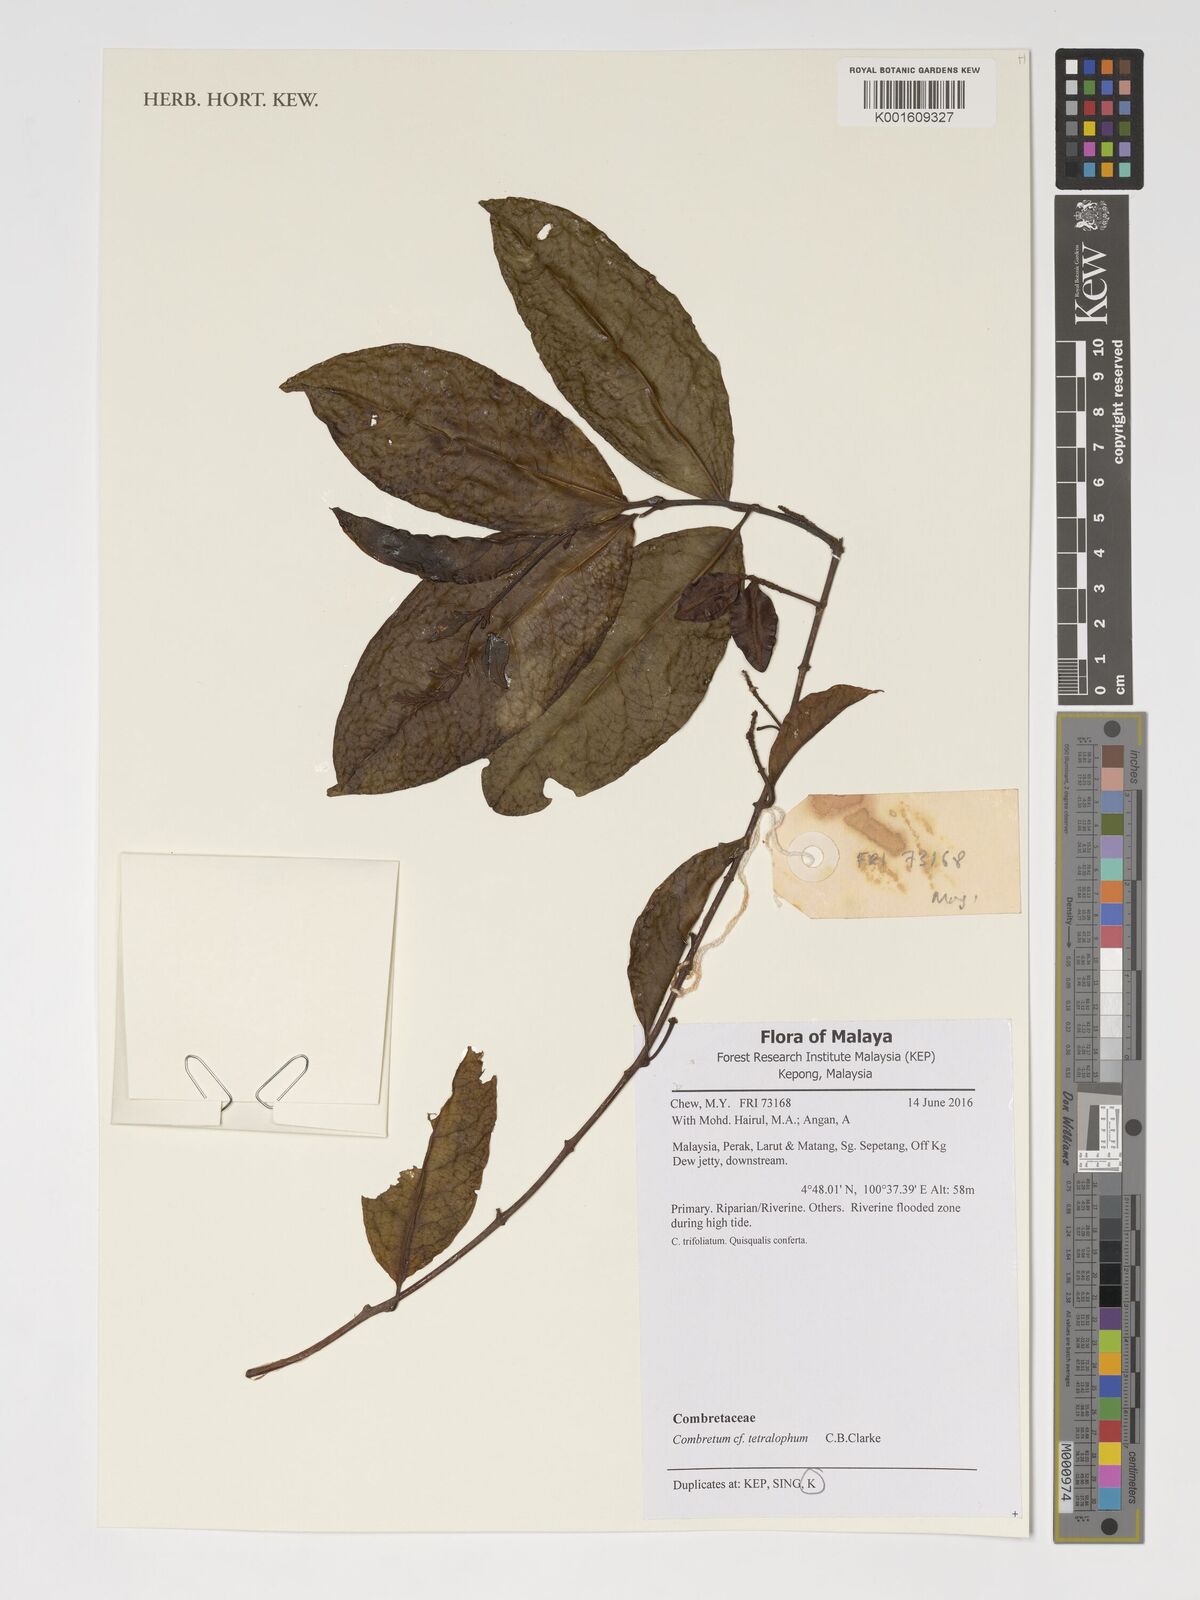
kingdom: Plantae
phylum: Tracheophyta
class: Magnoliopsida
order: Myrtales
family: Combretaceae
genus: Combretum
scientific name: Combretum tetralophum
